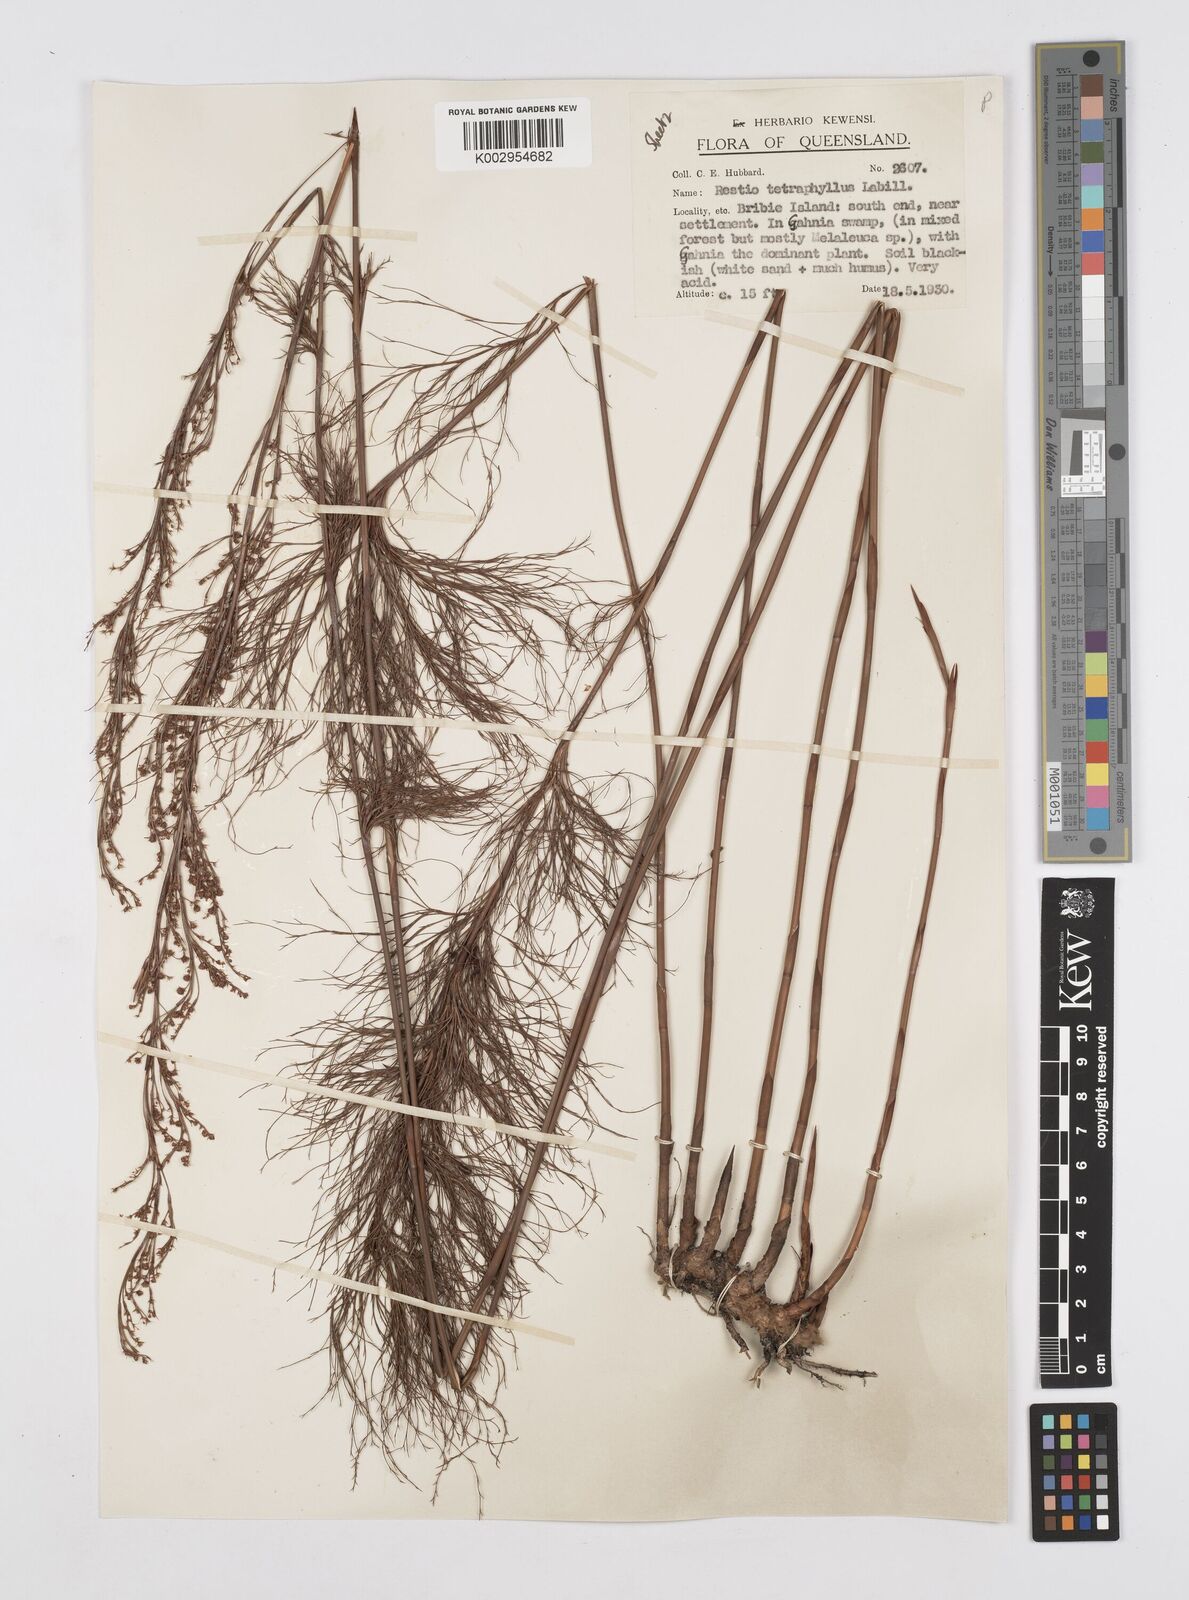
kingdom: Plantae
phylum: Tracheophyta
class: Liliopsida
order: Poales
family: Restionaceae
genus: Baloskion
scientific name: Baloskion tetraphyllum
